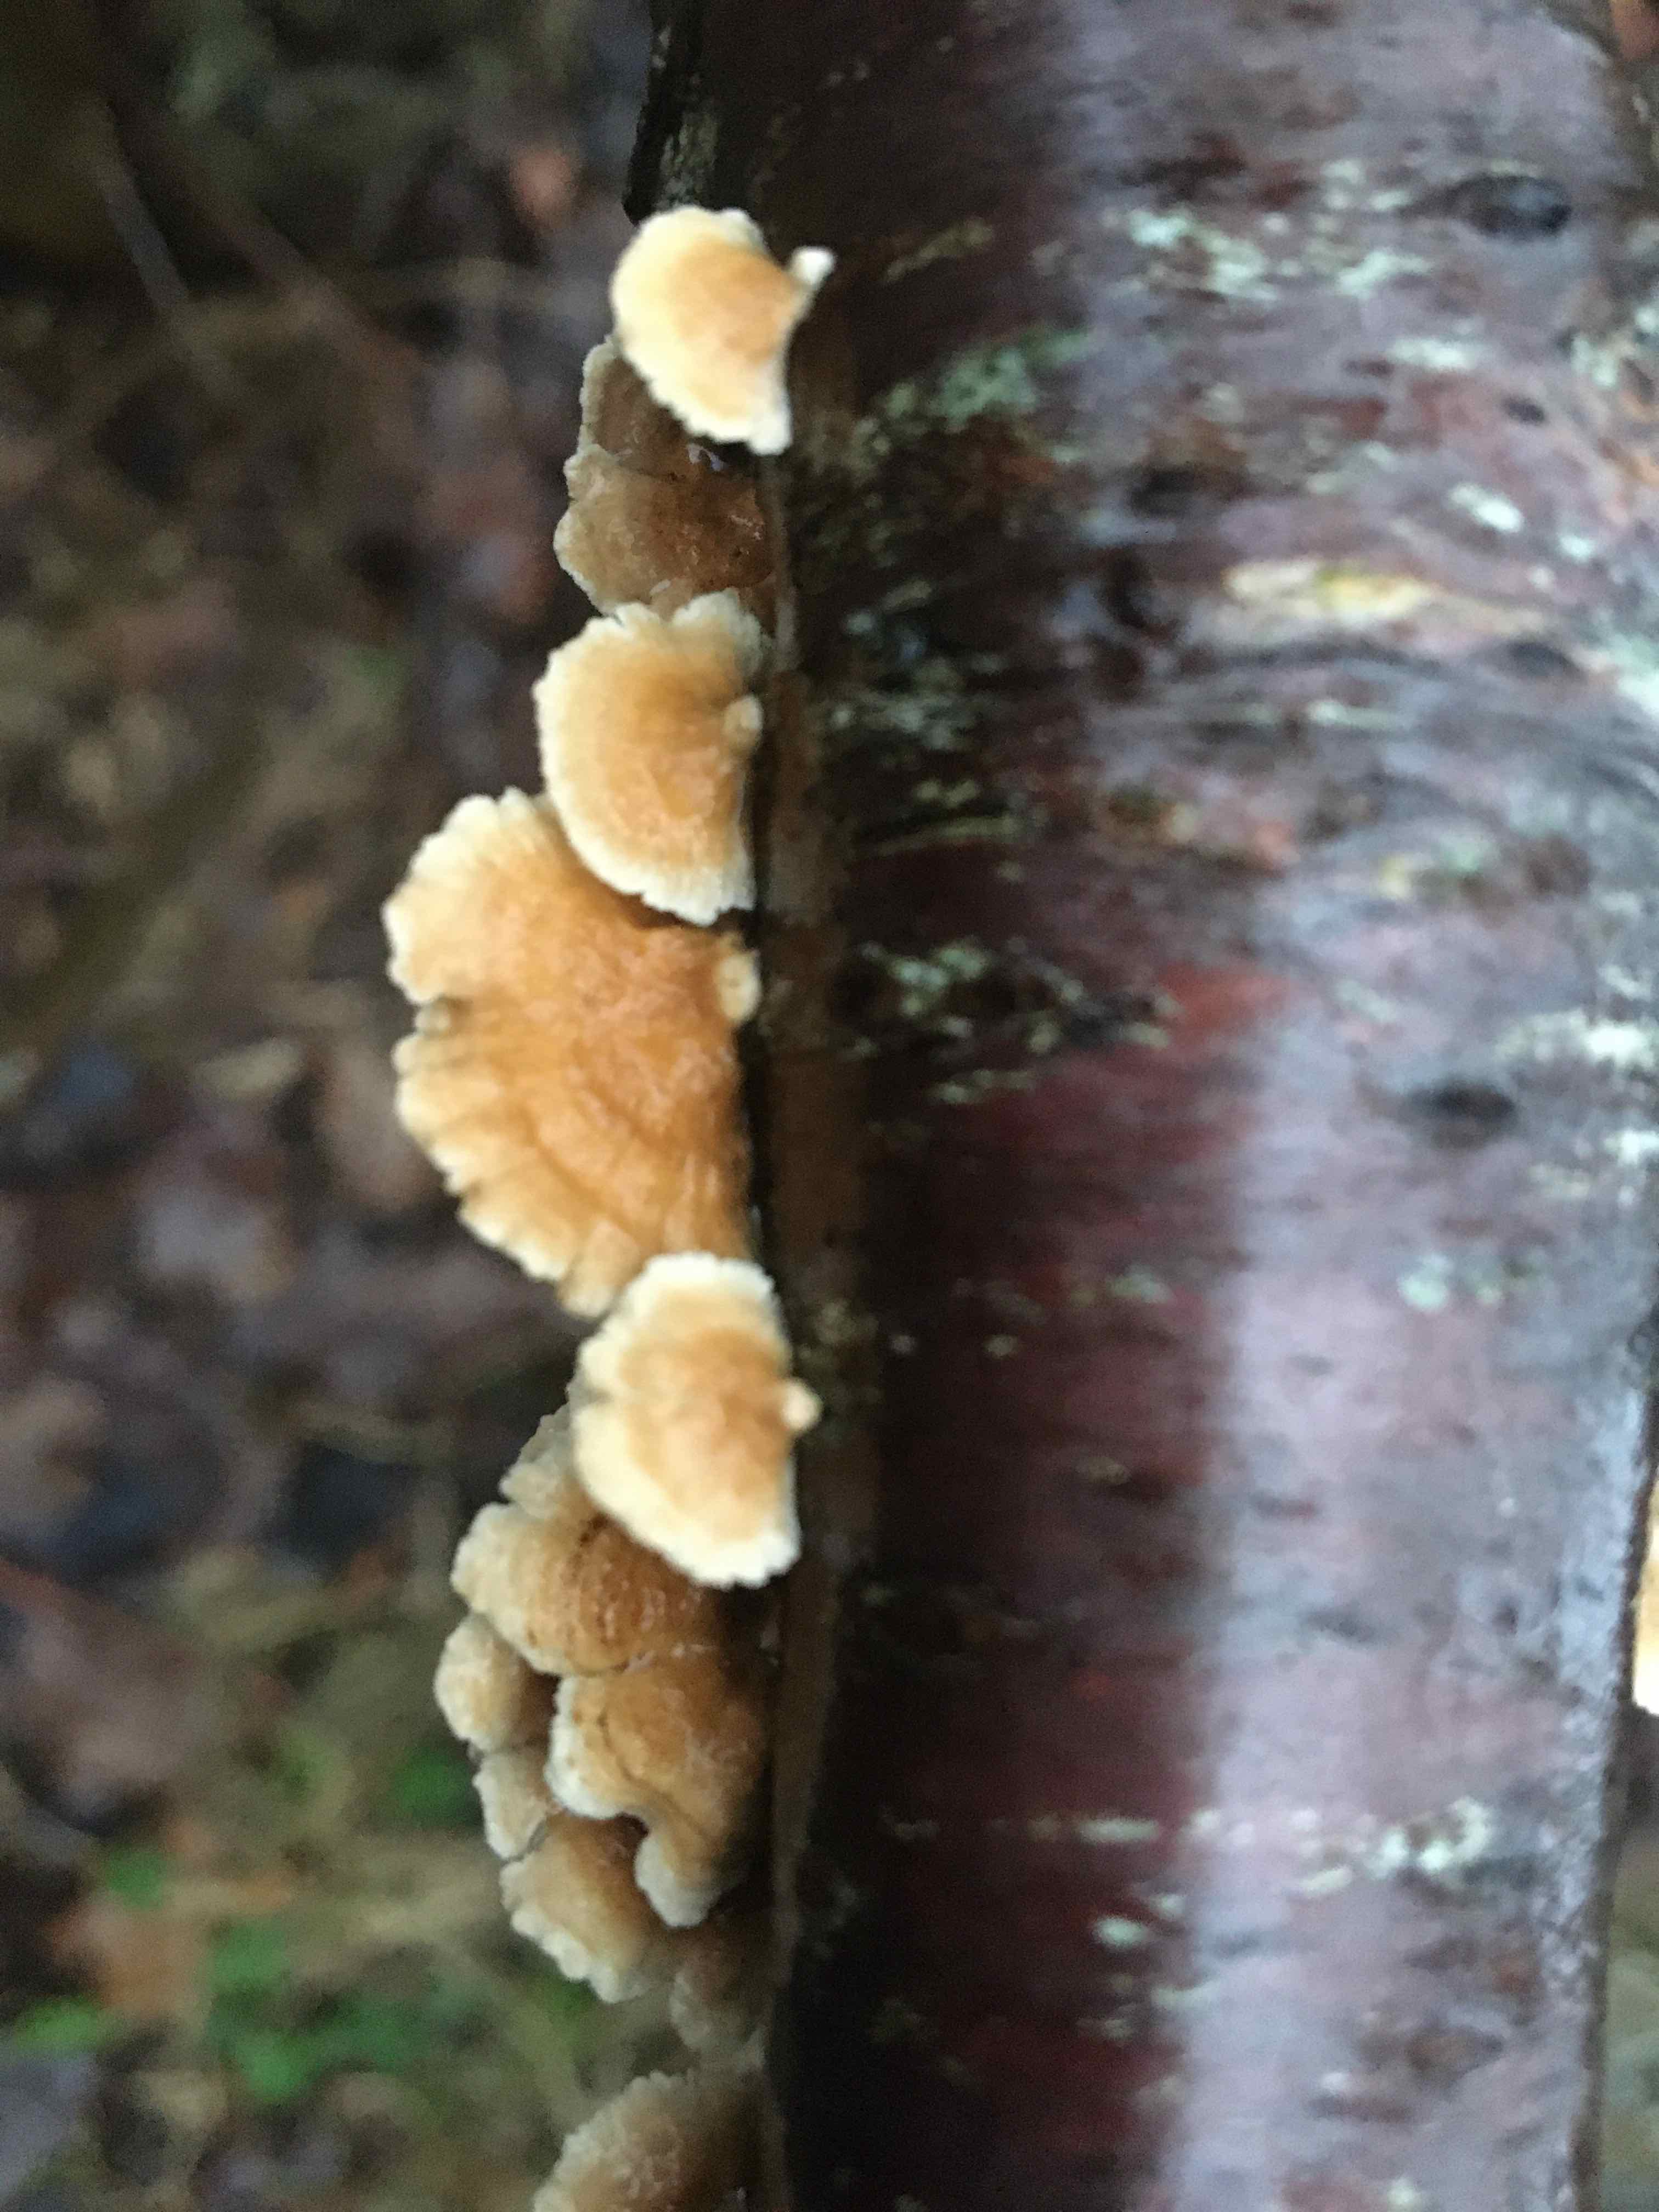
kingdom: Fungi
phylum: Basidiomycota
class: Agaricomycetes
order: Amylocorticiales
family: Amylocorticiaceae
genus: Plicaturopsis
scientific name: Plicaturopsis crispa
